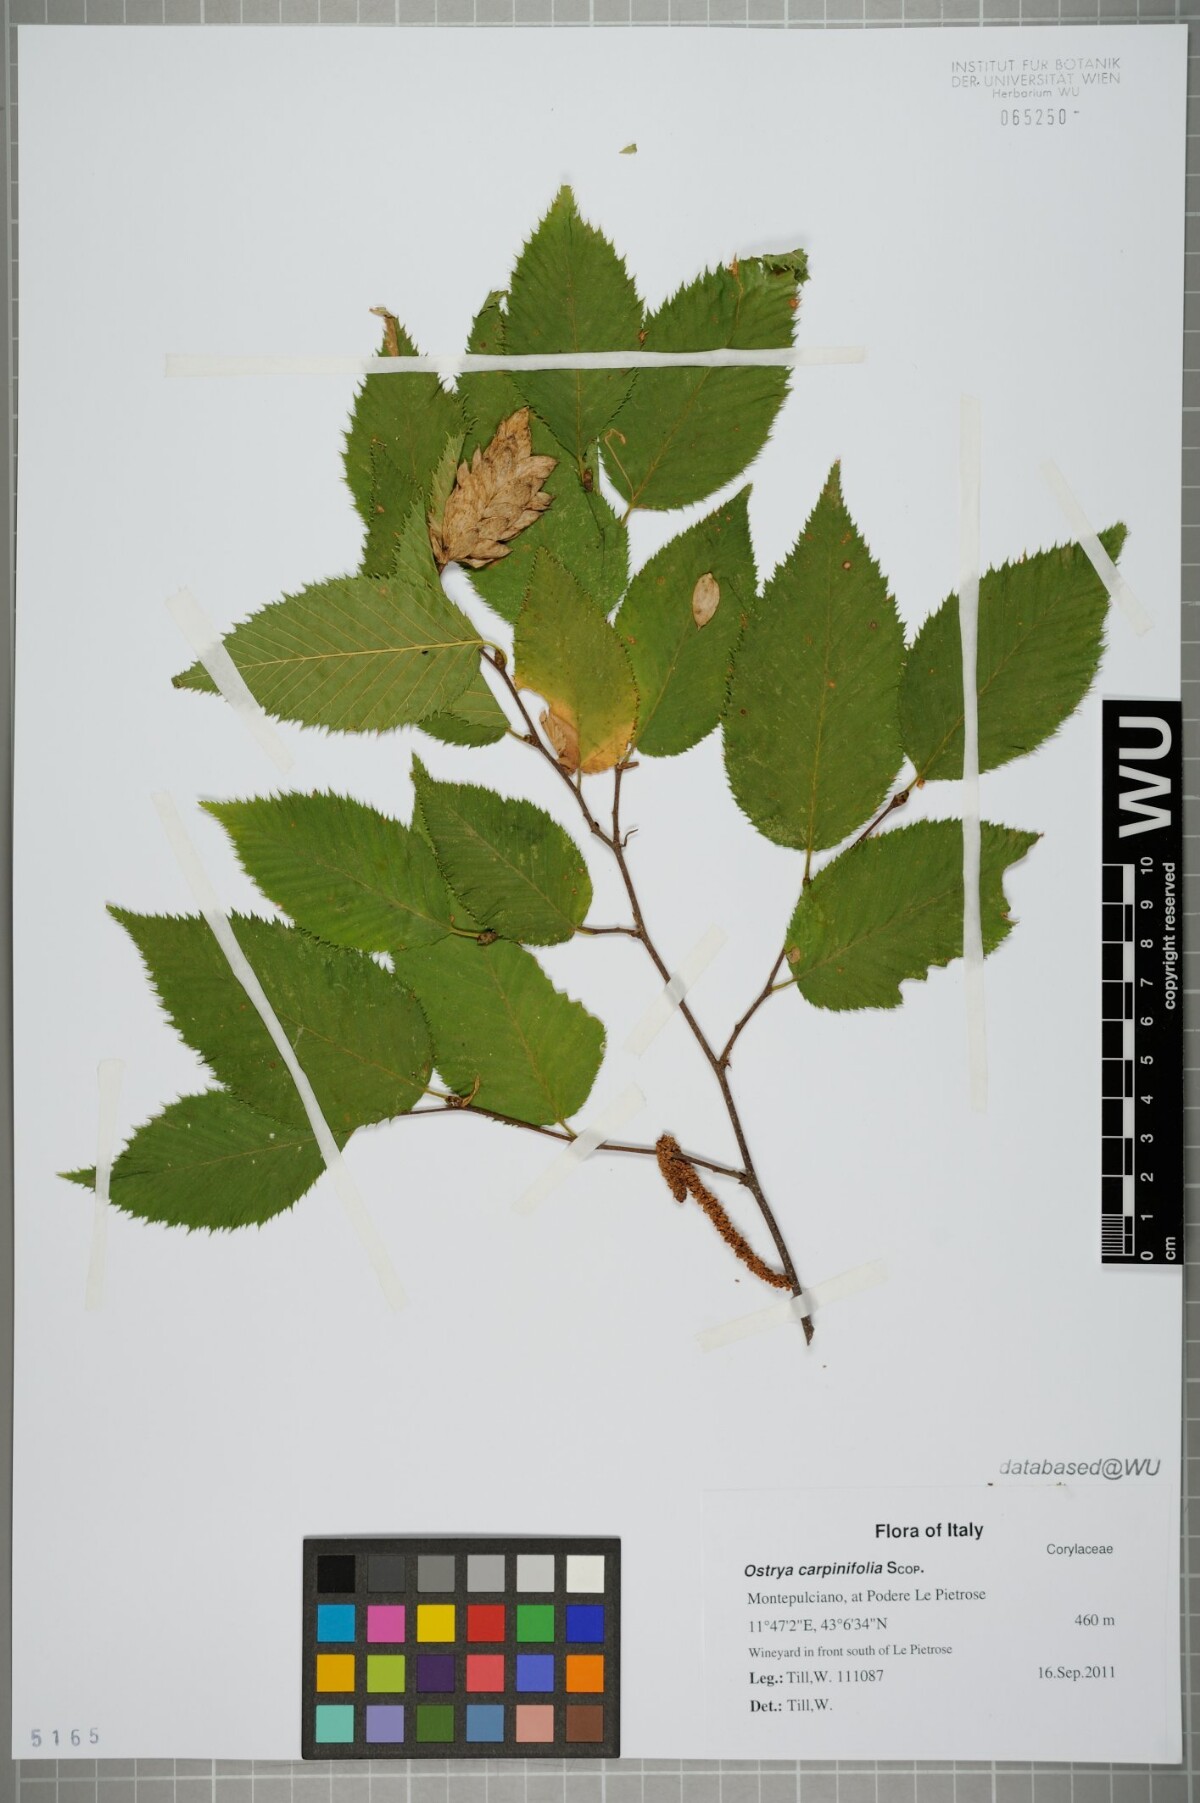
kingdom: Plantae
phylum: Tracheophyta
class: Magnoliopsida
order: Fagales
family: Betulaceae
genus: Ostrya
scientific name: Ostrya carpinifolia
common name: European hop-hornbeam
